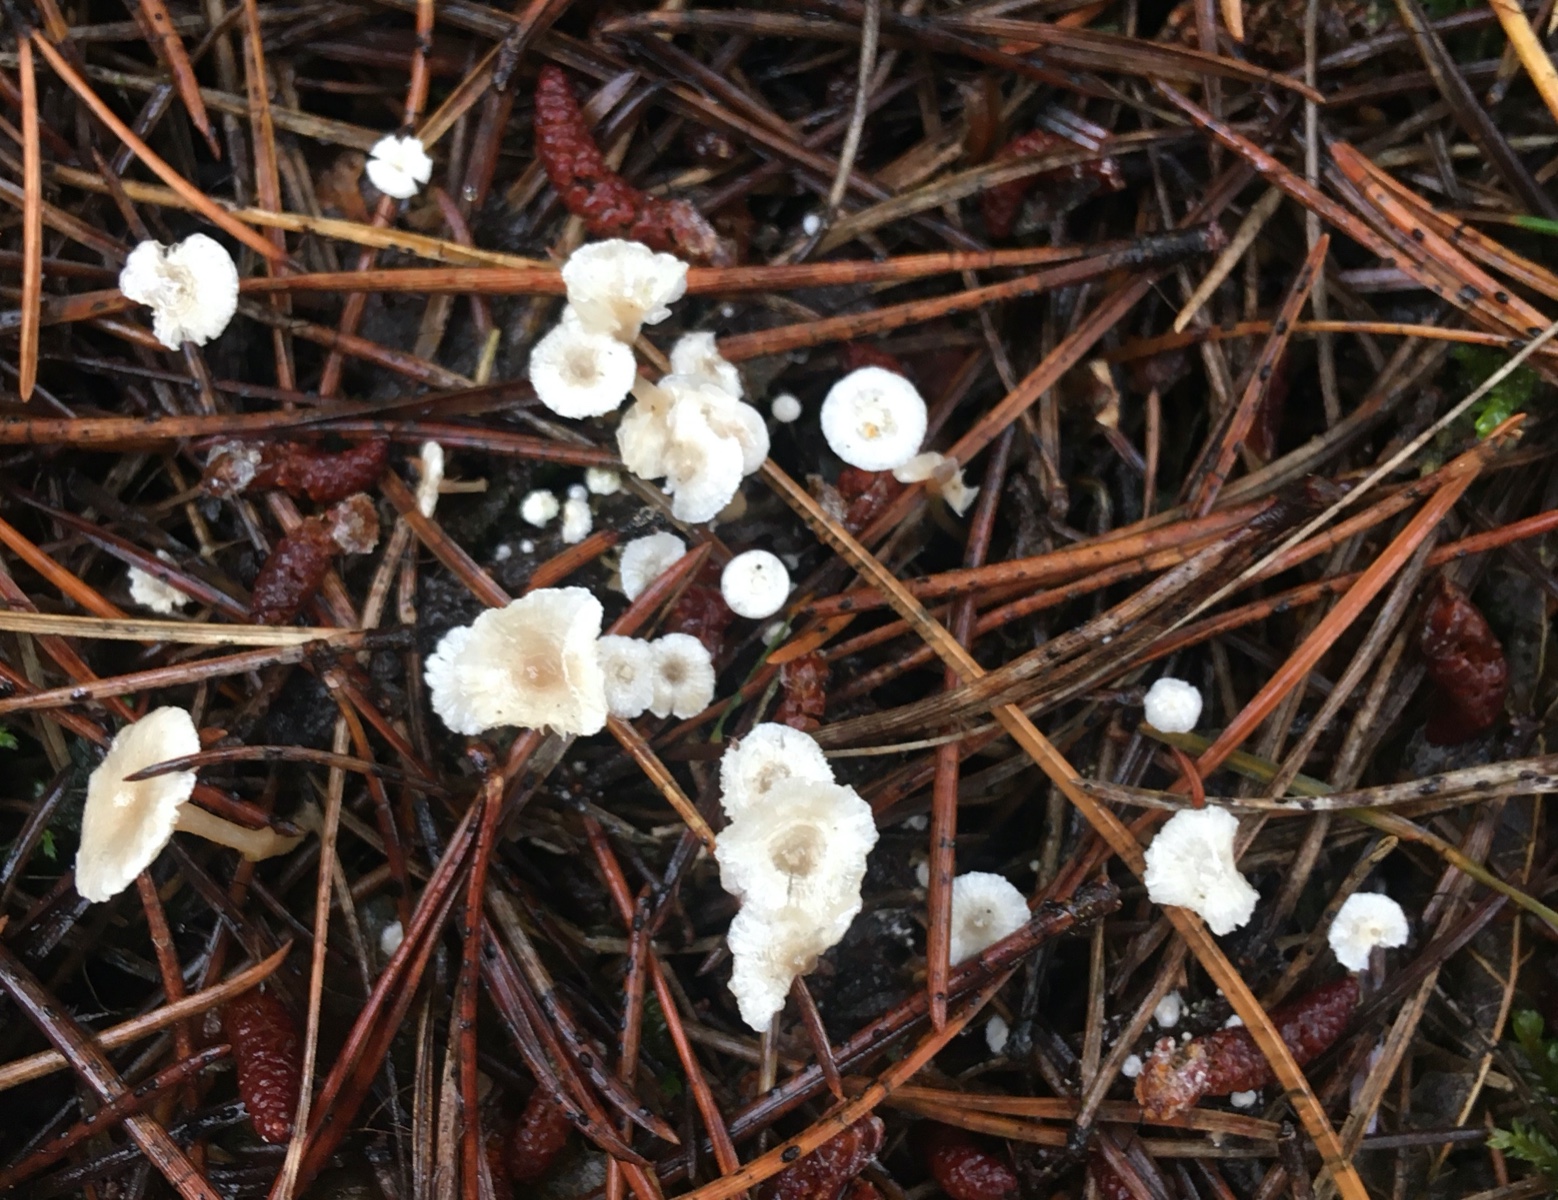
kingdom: Fungi
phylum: Basidiomycota
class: Agaricomycetes
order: Agaricales
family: Tricholomataceae
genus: Collybia
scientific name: Collybia cirrhata
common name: silke-lighat
